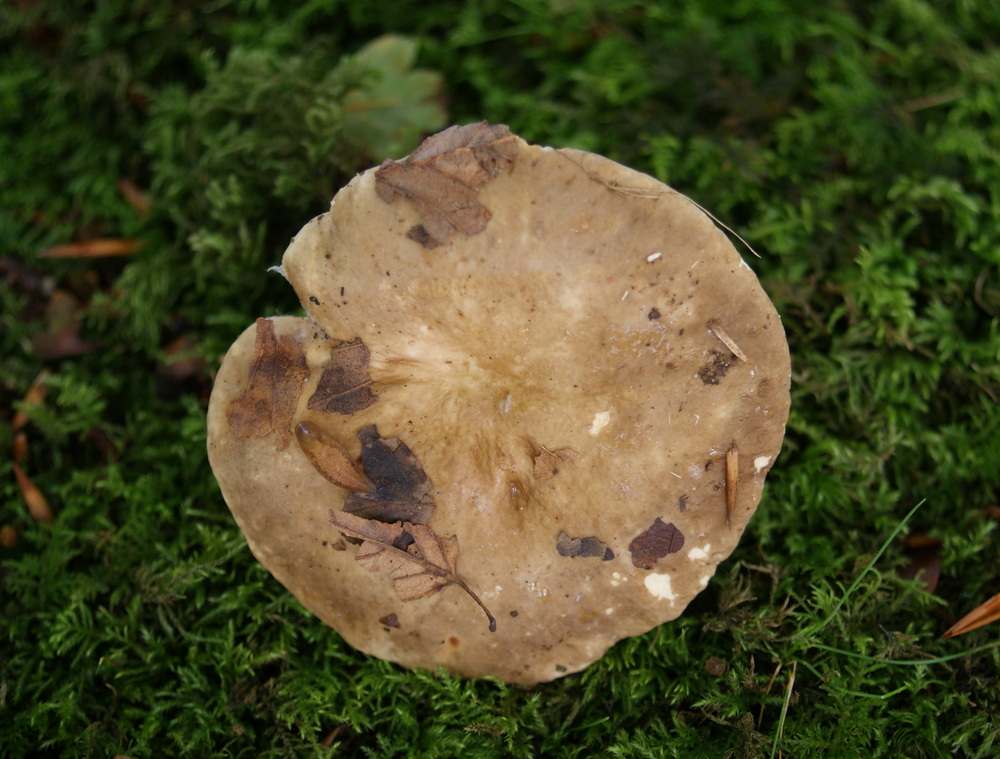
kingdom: Fungi
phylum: Basidiomycota
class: Agaricomycetes
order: Russulales
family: Russulaceae
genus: Lactarius
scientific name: Lactarius acris
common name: rosamælket mælkehat
